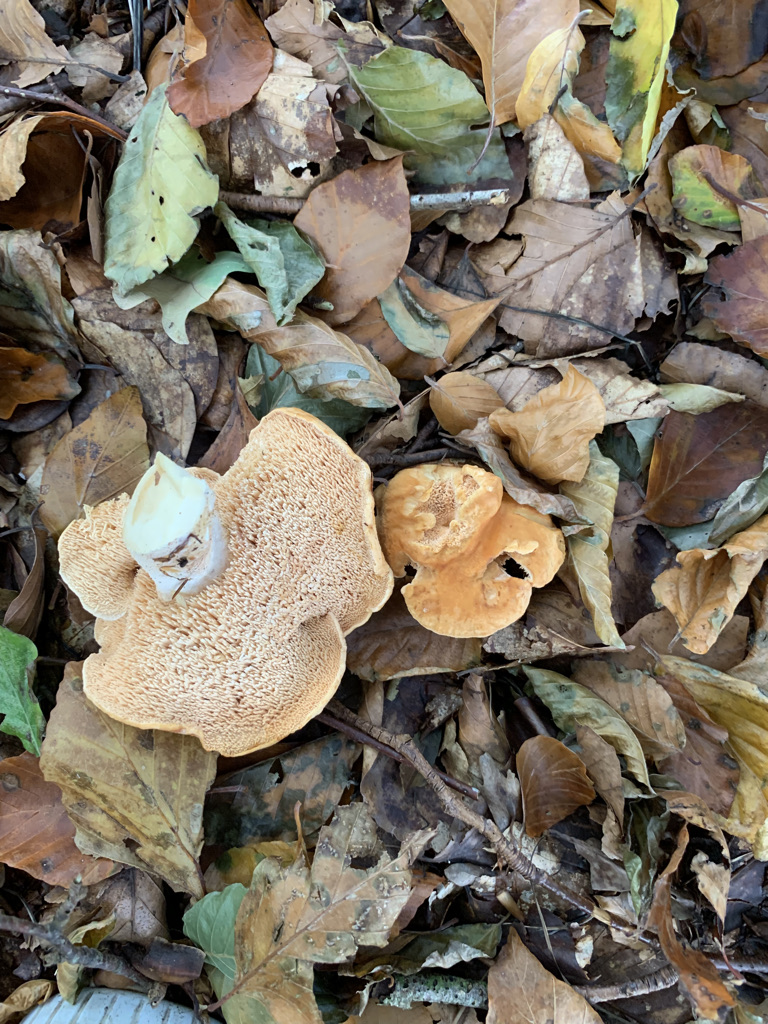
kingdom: Fungi
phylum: Basidiomycota
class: Agaricomycetes
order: Cantharellales
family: Hydnaceae
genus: Hydnum
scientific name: Hydnum ellipsosporum
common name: tandet pigsvamp
